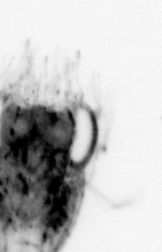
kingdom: Animalia
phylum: Arthropoda
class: Malacostraca
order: Decapoda
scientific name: Decapoda
